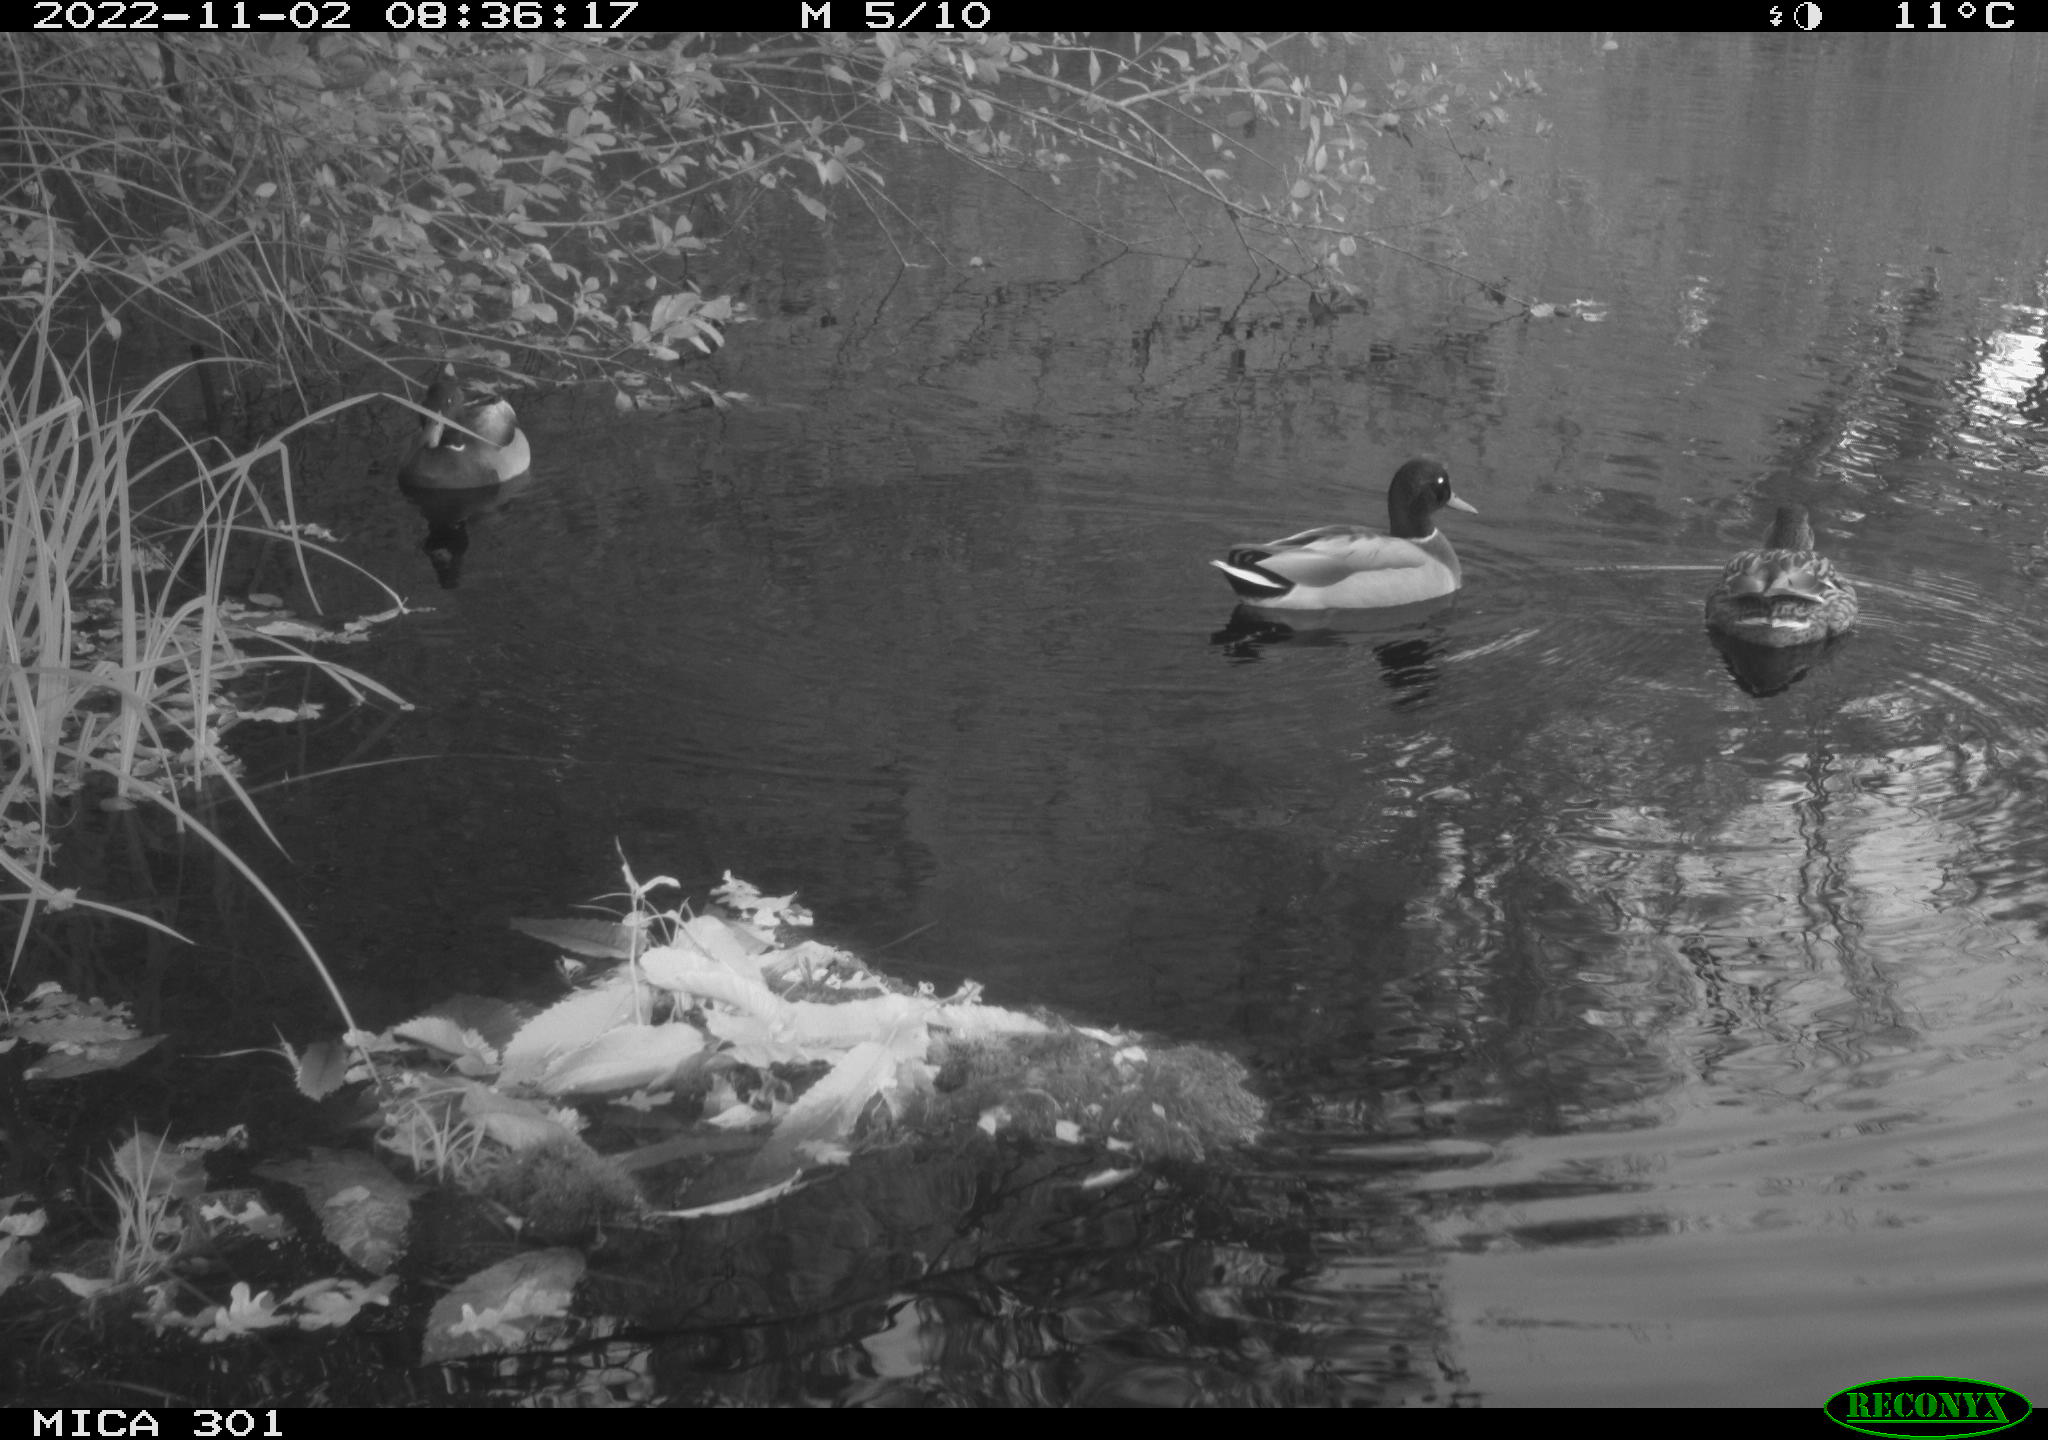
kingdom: Animalia
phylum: Chordata
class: Aves
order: Anseriformes
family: Anatidae
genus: Anas
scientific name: Anas
